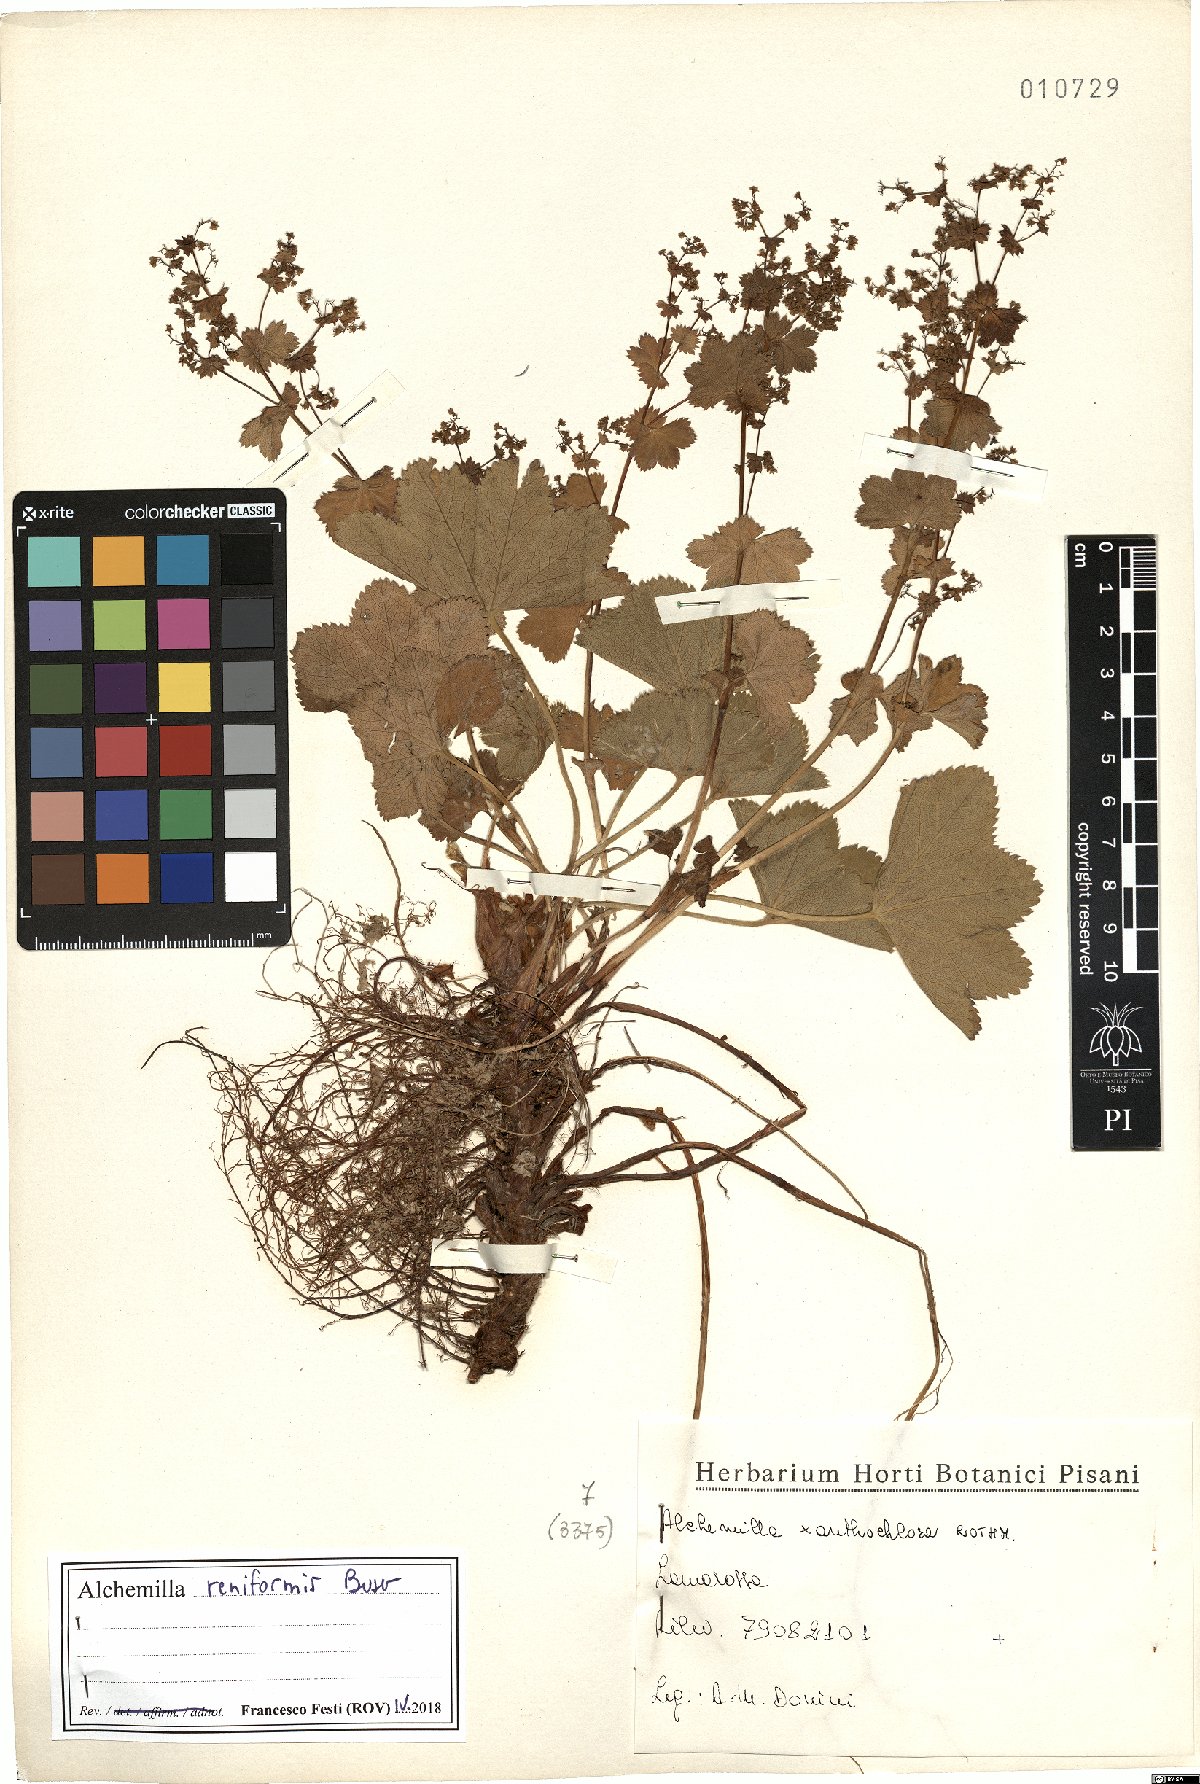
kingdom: Plantae
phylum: Tracheophyta
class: Magnoliopsida
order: Rosales
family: Rosaceae
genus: Alchemilla
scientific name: Alchemilla reniformis
